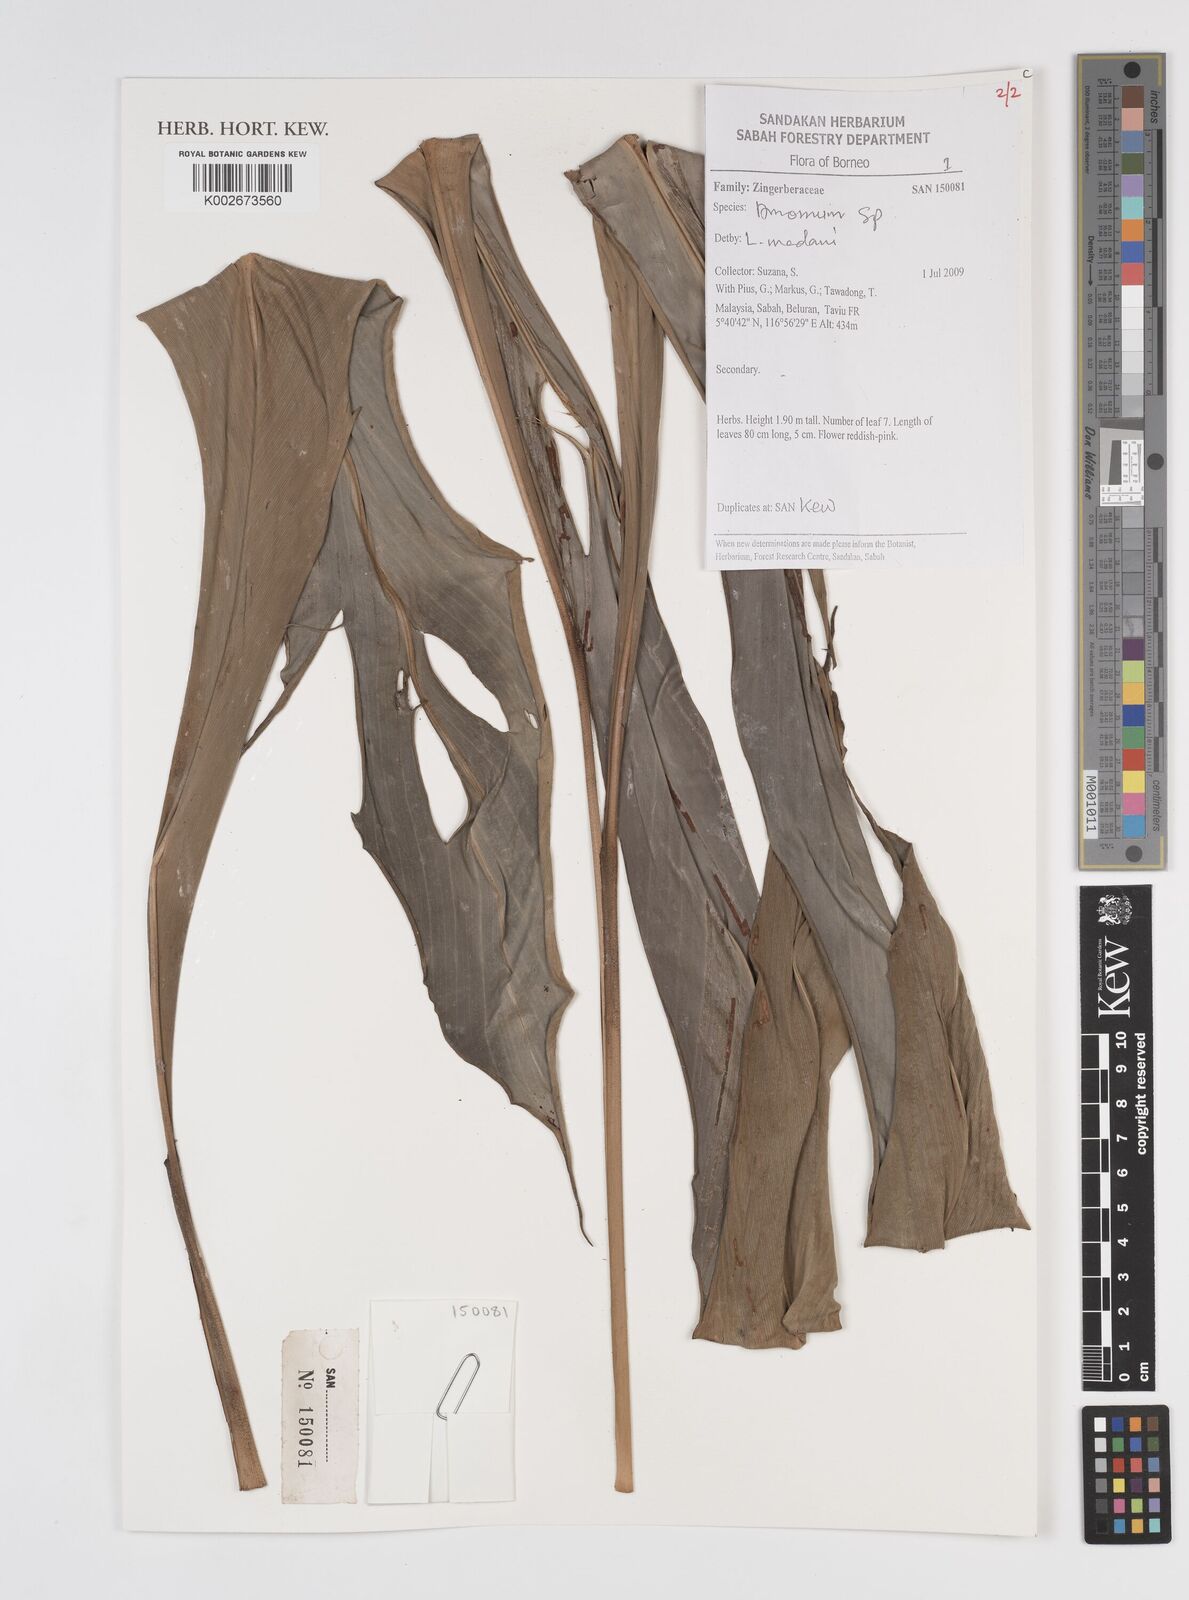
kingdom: Plantae
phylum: Tracheophyta
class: Liliopsida
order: Zingiberales
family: Zingiberaceae
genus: Amomum
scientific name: Amomum
